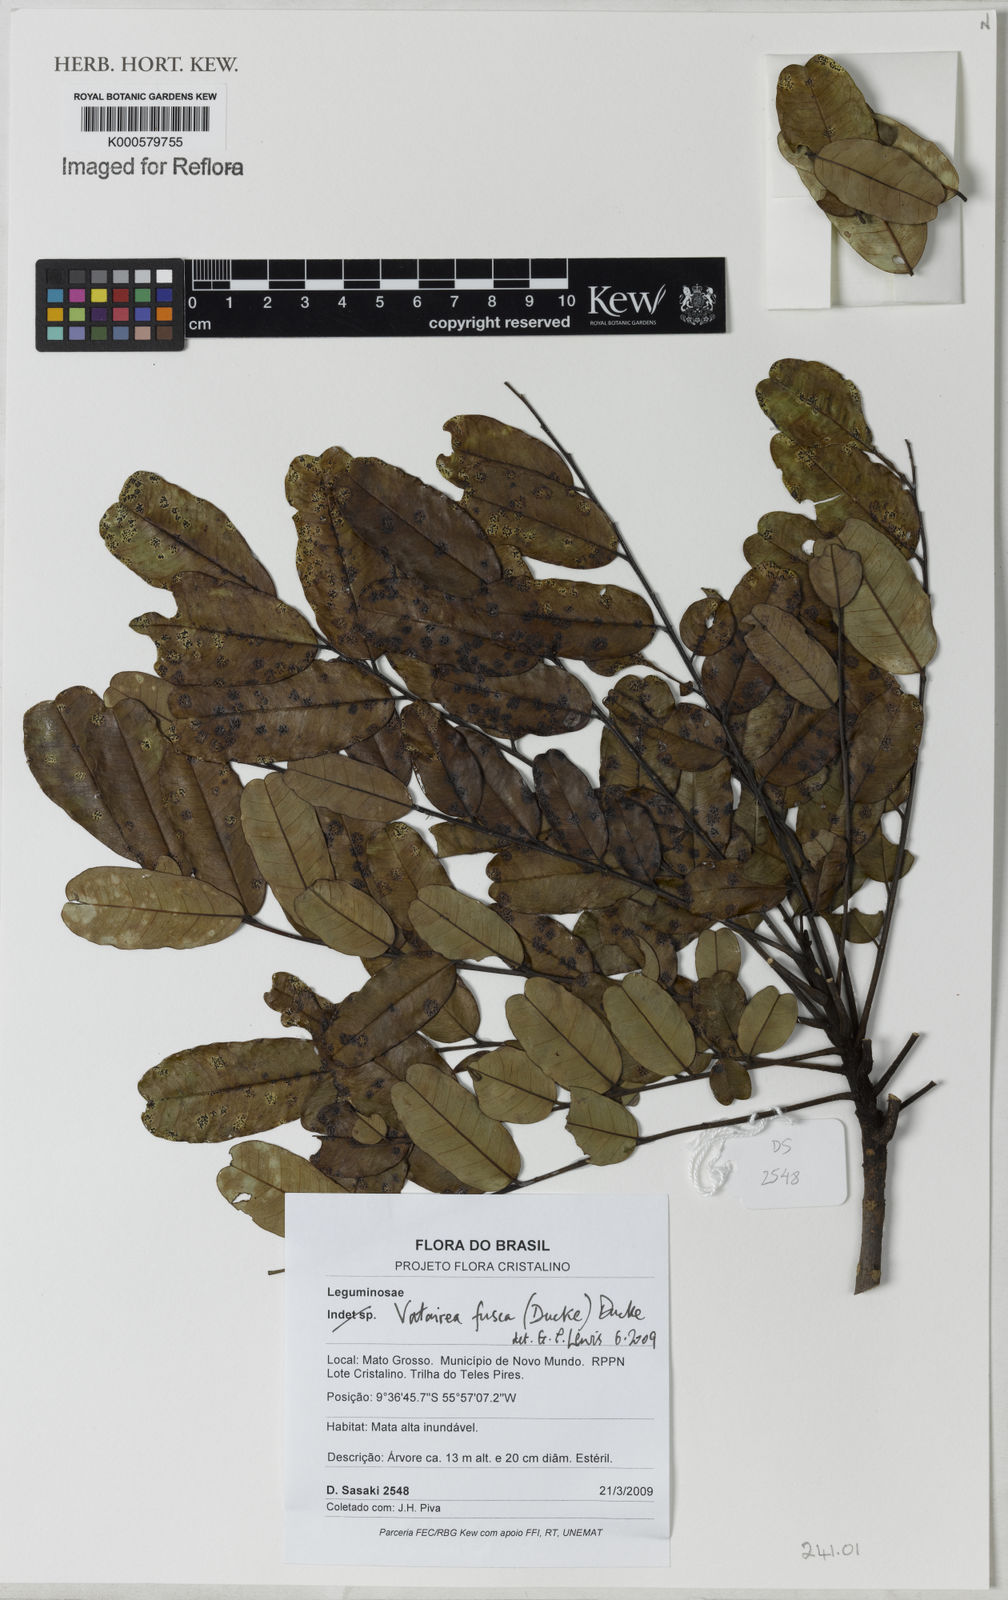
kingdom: Plantae
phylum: Tracheophyta
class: Magnoliopsida
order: Fabales
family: Fabaceae
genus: Vatairea
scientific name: Vatairea fusca
